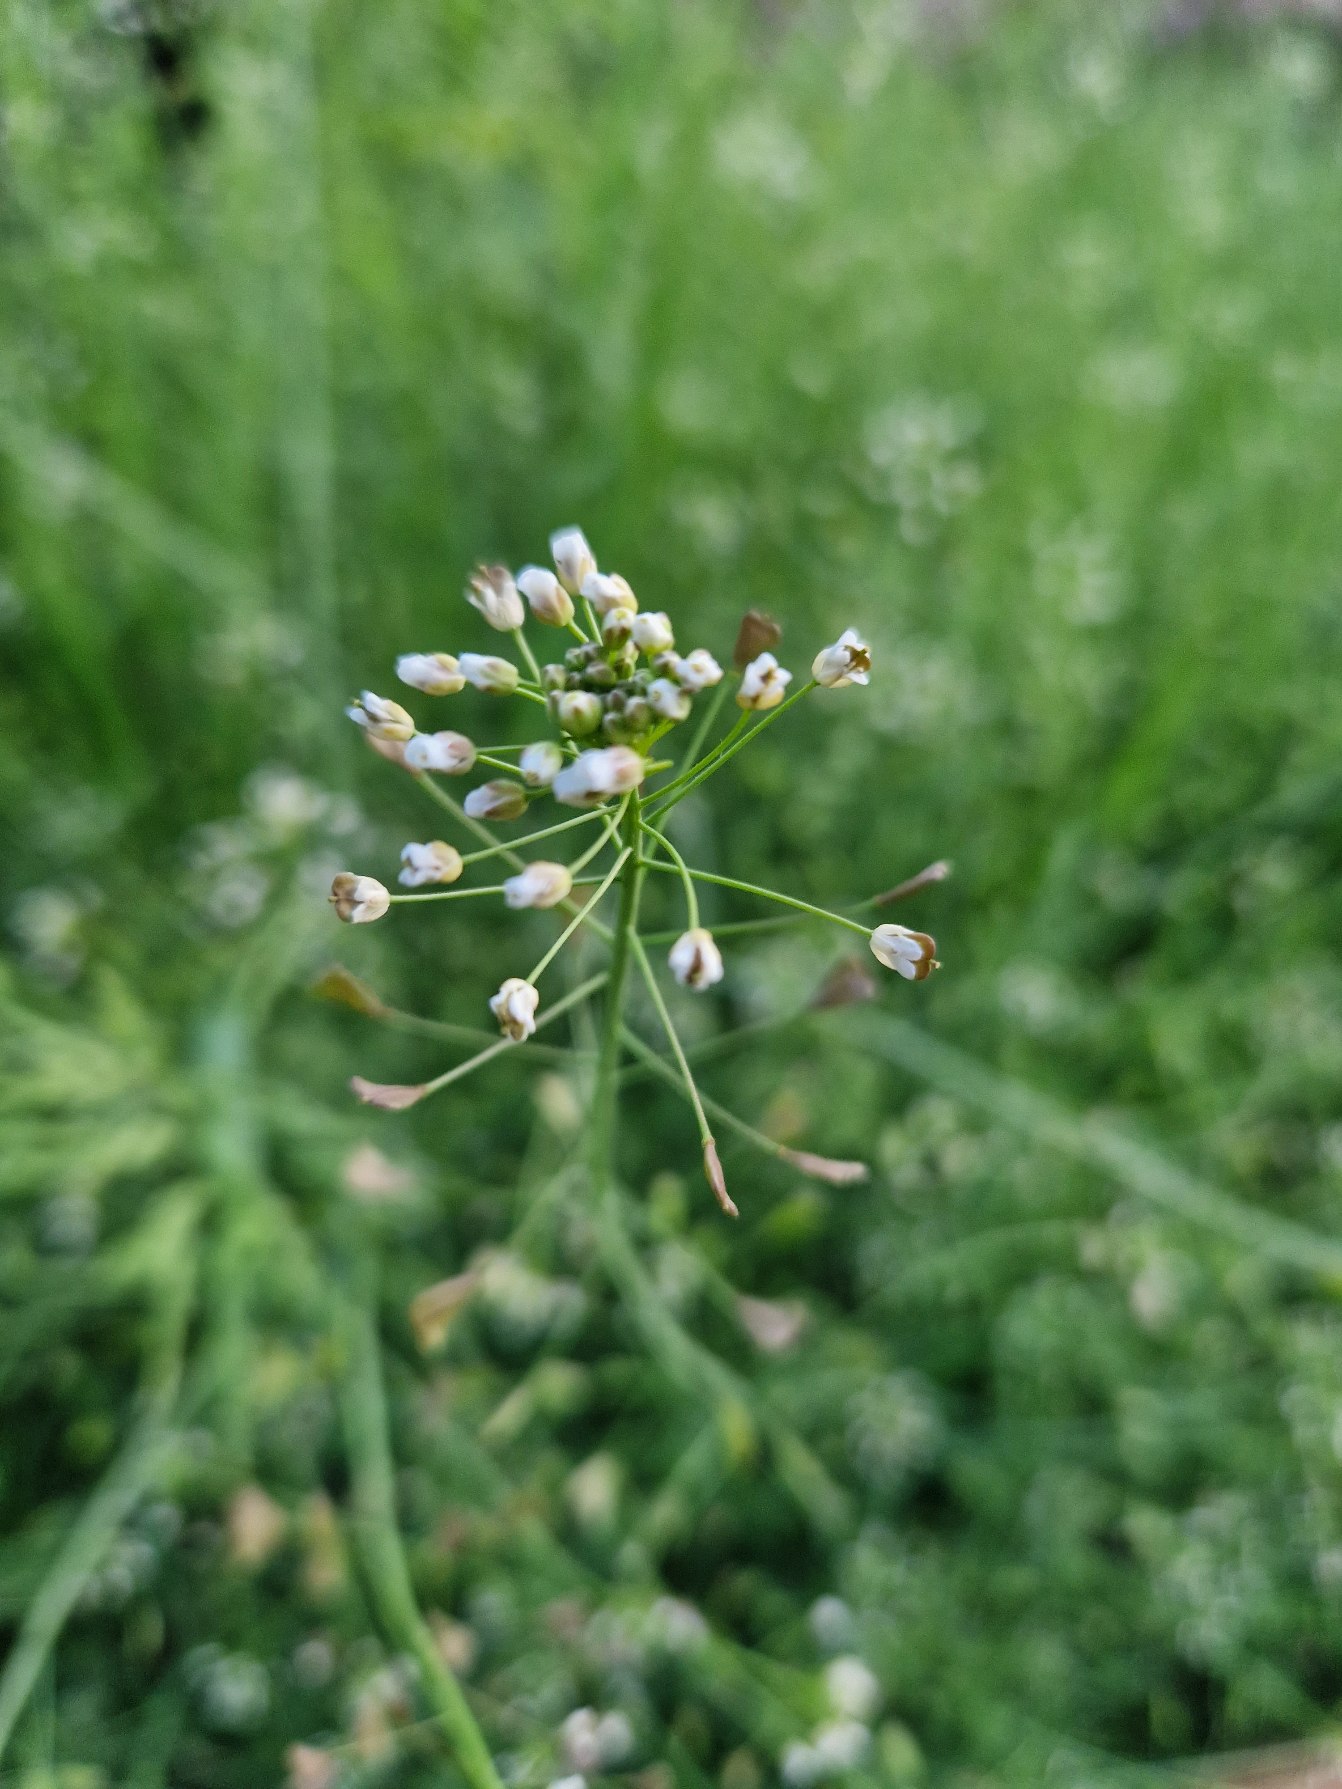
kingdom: Plantae
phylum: Tracheophyta
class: Magnoliopsida
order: Brassicales
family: Brassicaceae
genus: Capsella
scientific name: Capsella bursa-pastoris
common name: Hyrdetaske
